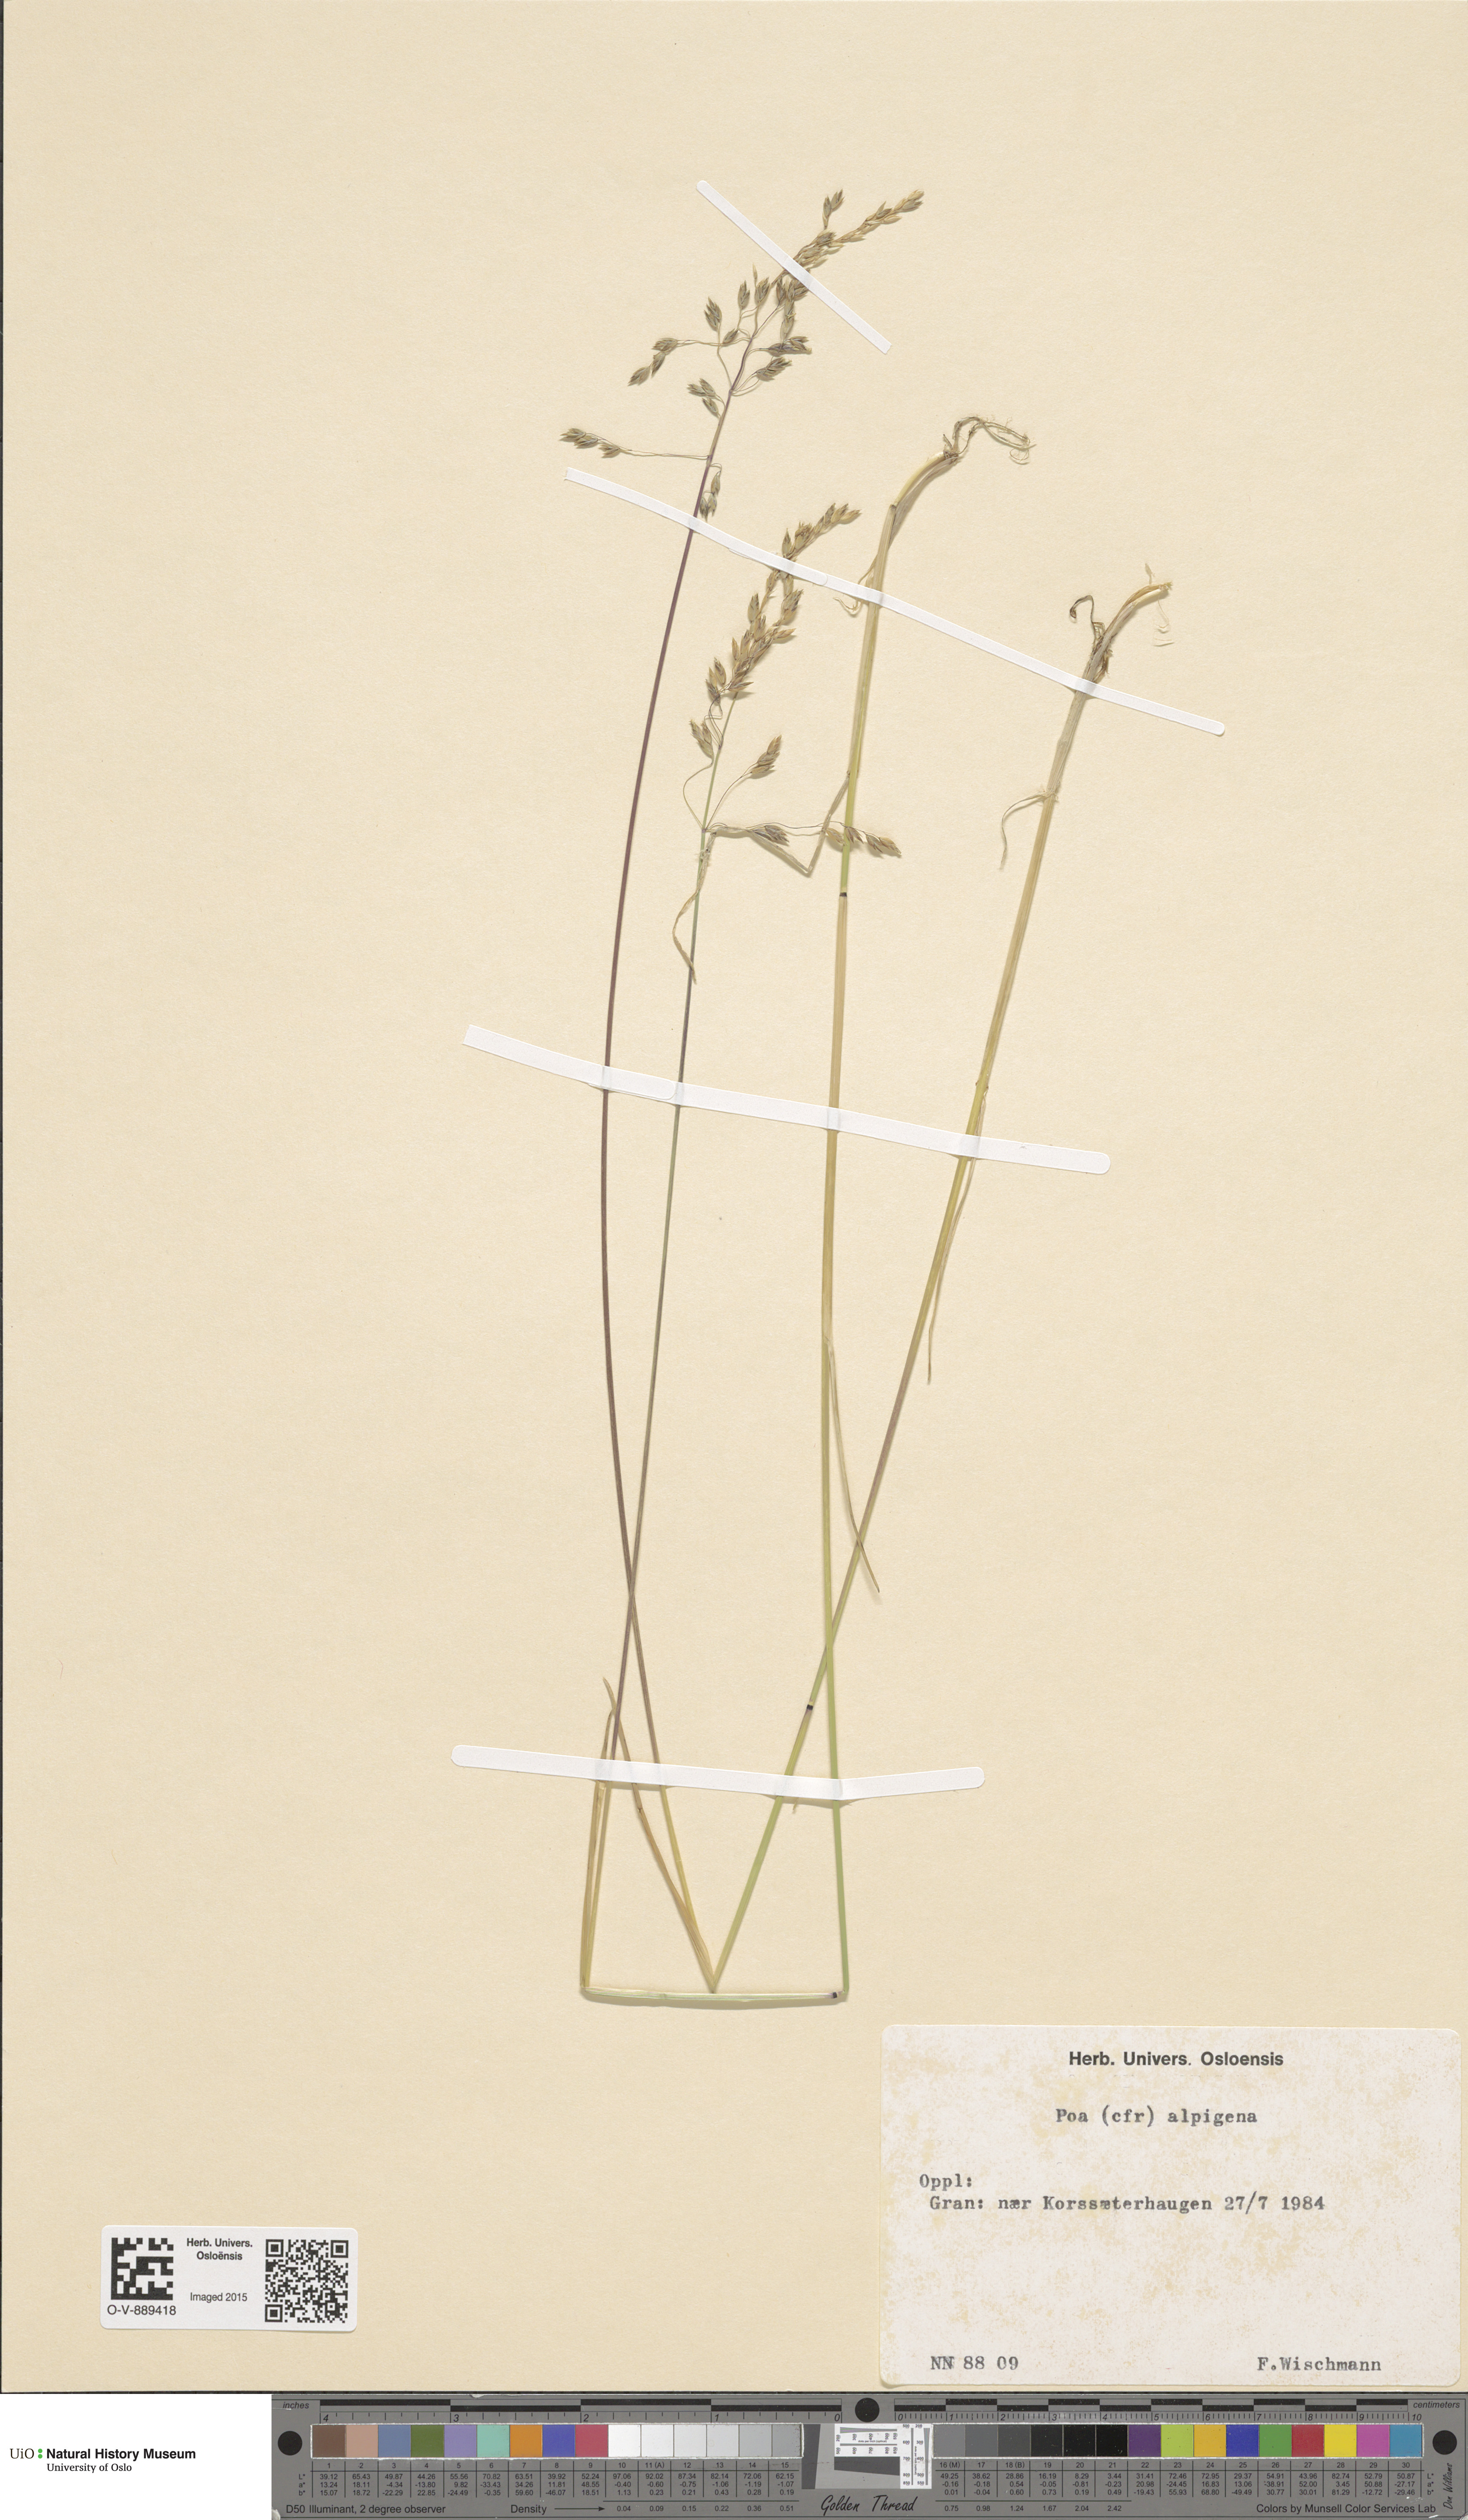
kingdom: Plantae
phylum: Tracheophyta
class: Liliopsida
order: Poales
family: Poaceae
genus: Poa
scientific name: Poa alpigena
